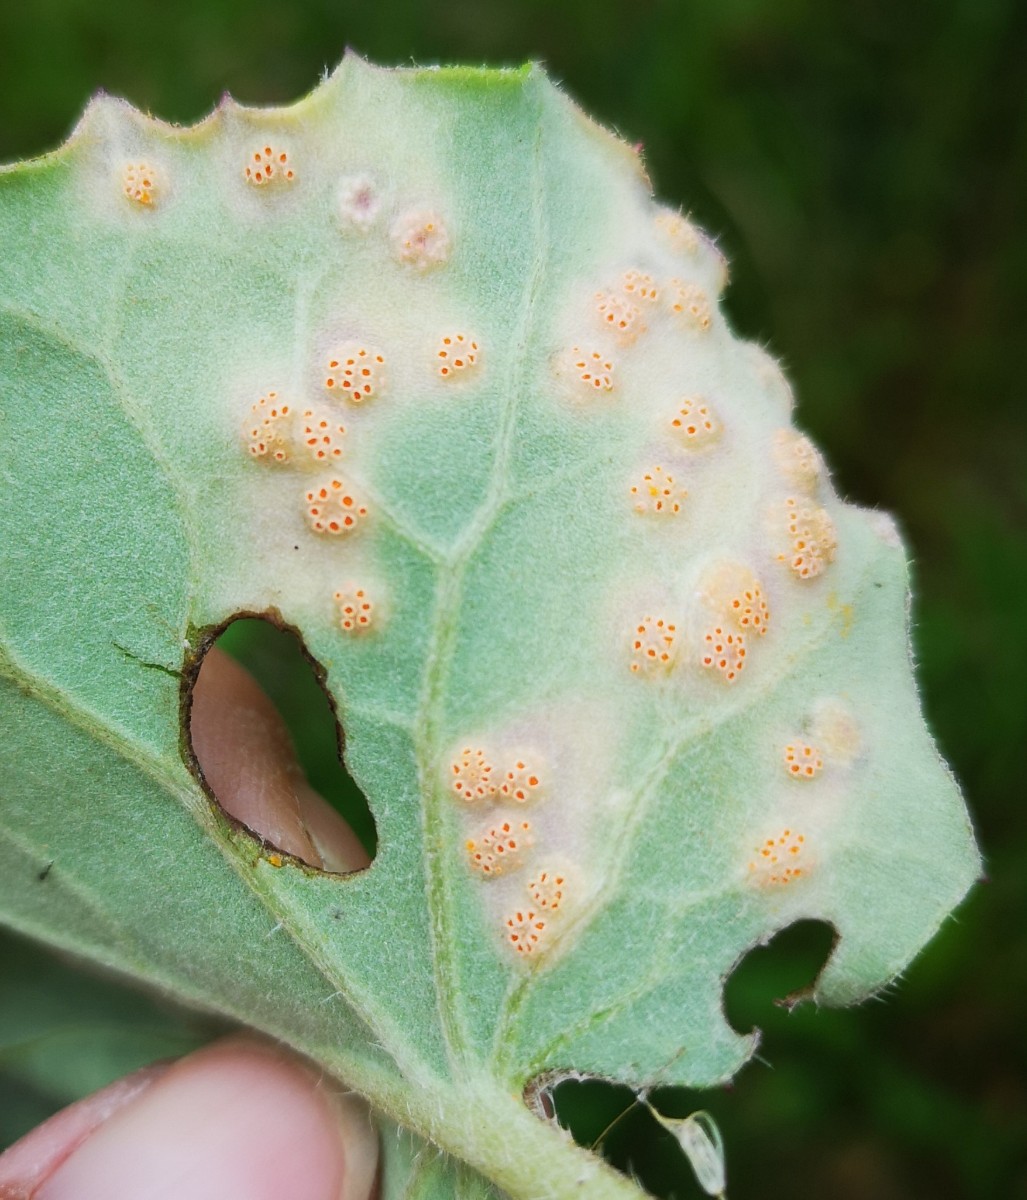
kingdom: Fungi
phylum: Basidiomycota
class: Pucciniomycetes
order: Pucciniales
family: Pucciniaceae
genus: Puccinia
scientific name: Puccinia poarum
